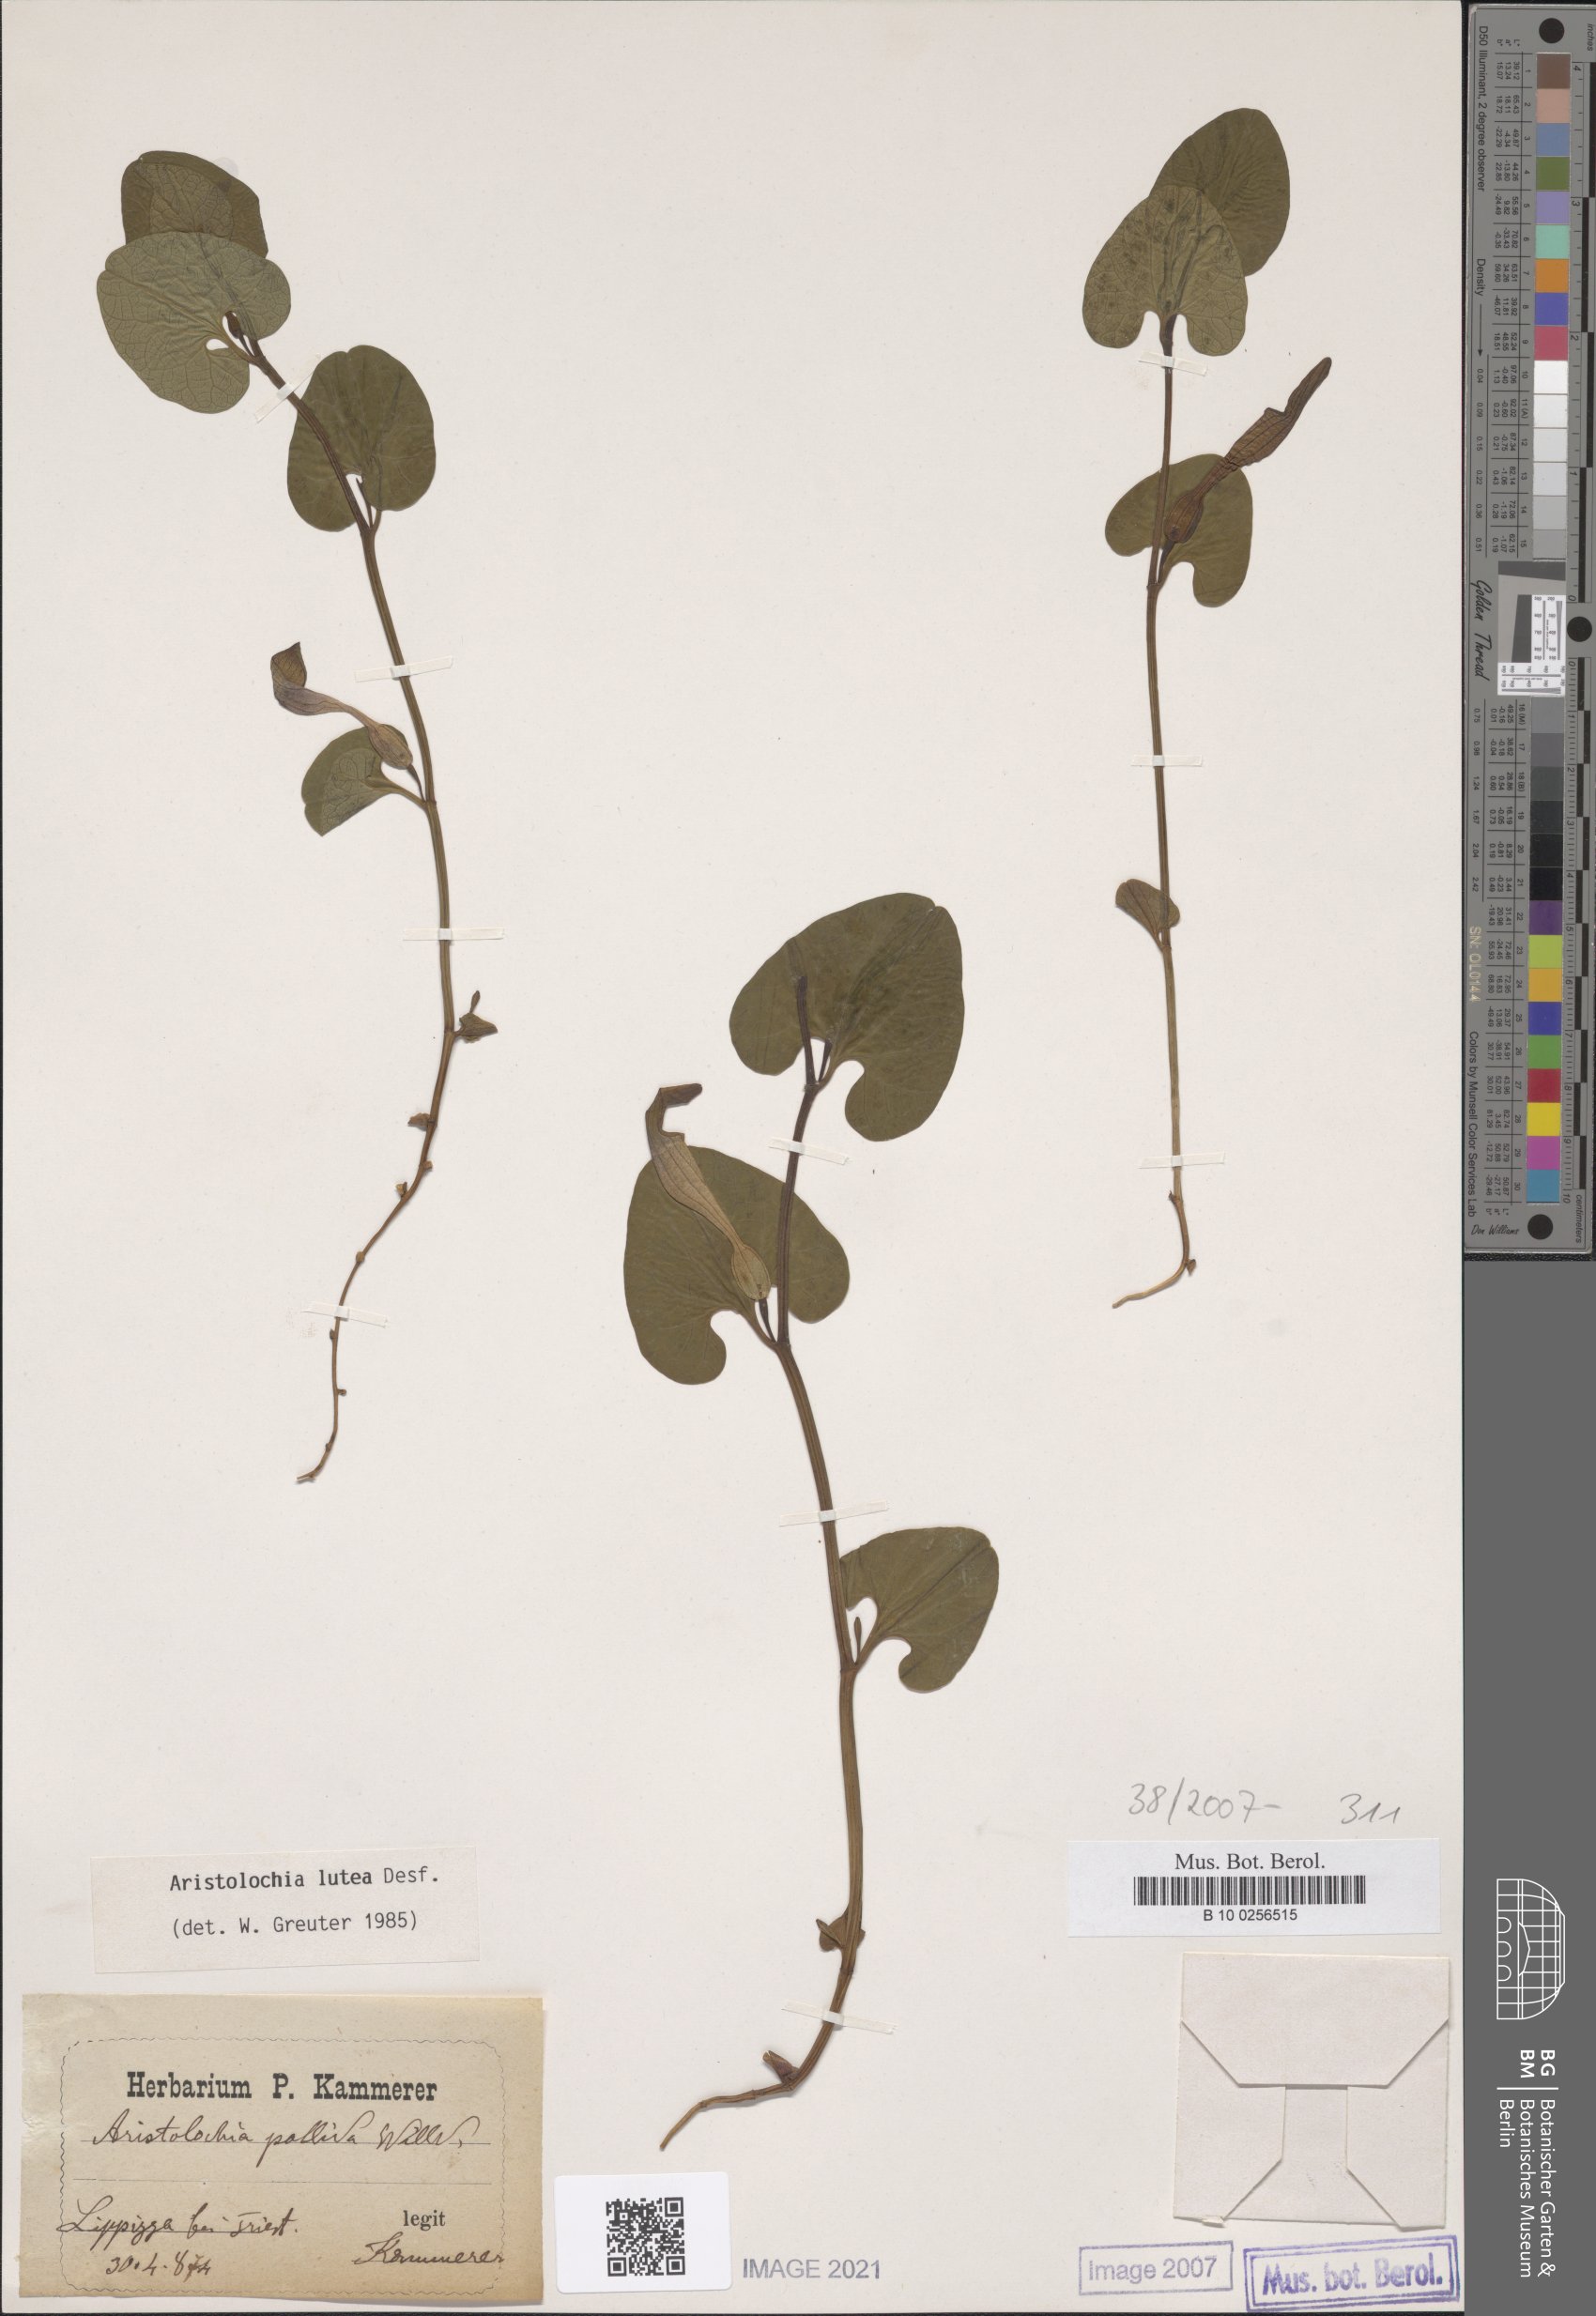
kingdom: Plantae
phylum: Tracheophyta
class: Magnoliopsida
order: Piperales
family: Aristolochiaceae
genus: Aristolochia
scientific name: Aristolochia lutea
